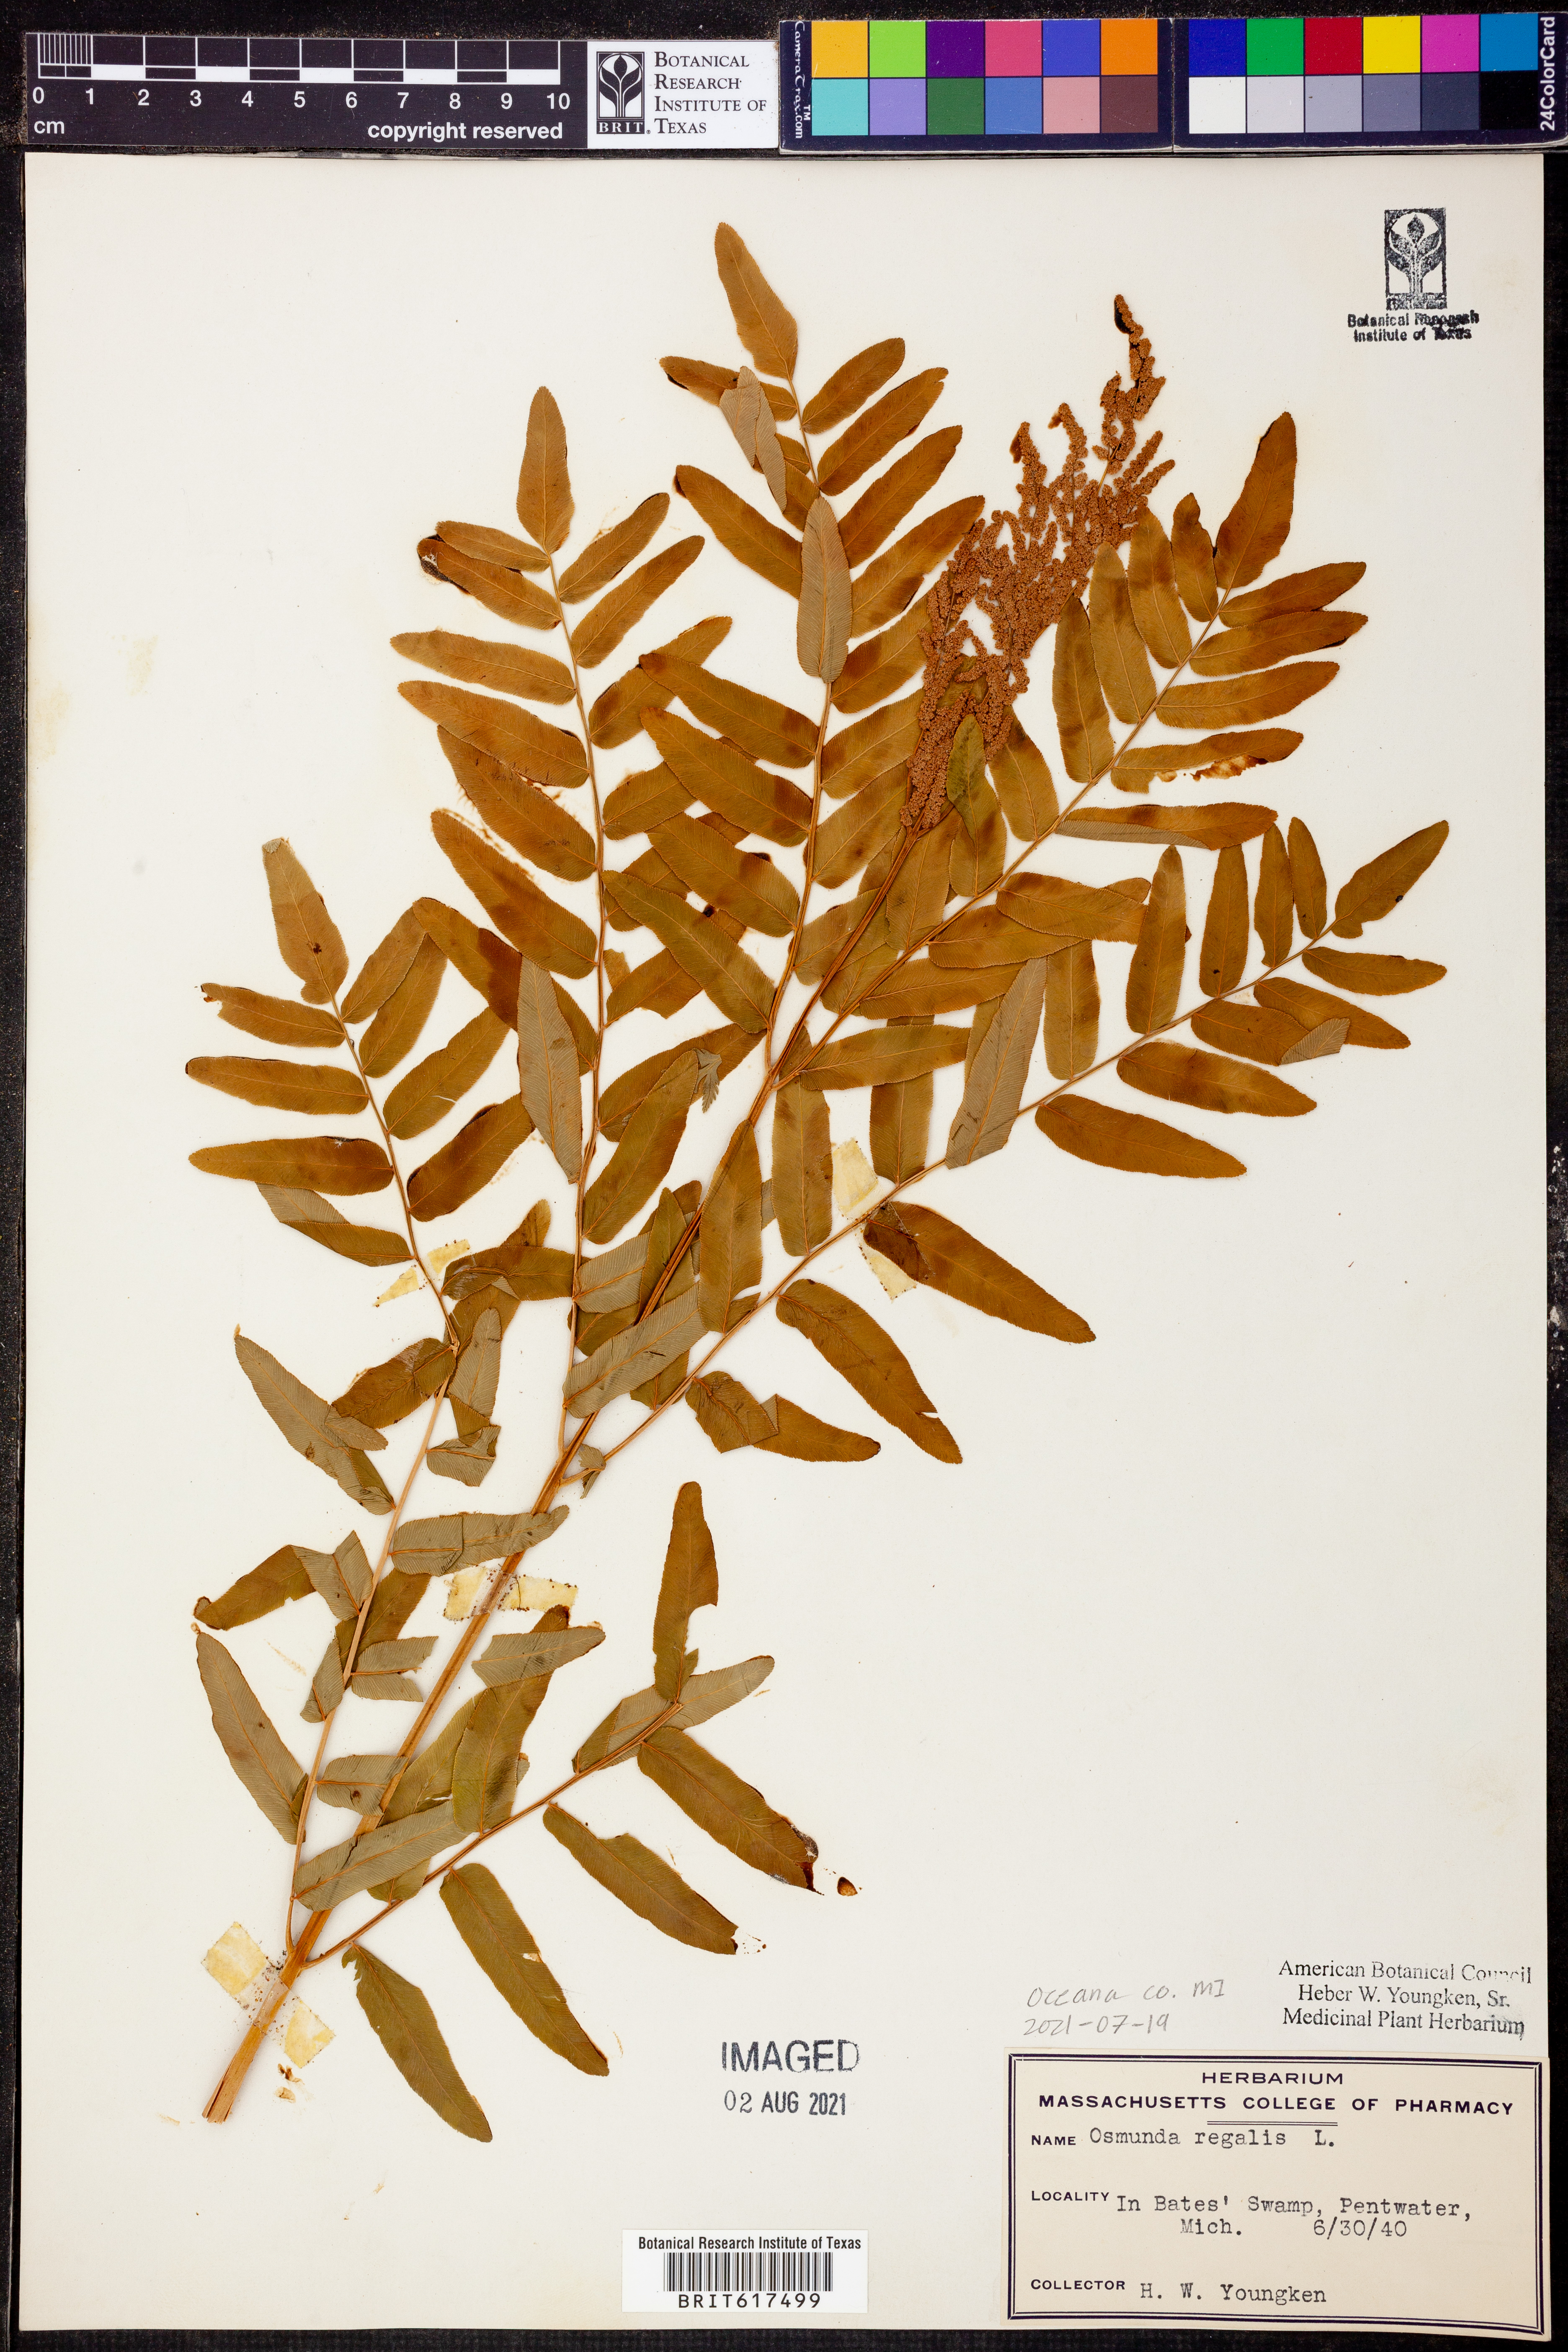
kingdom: Plantae
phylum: Tracheophyta
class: Polypodiopsida
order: Osmundales
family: Osmundaceae
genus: Osmunda
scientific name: Osmunda regalis
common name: Royal fern
